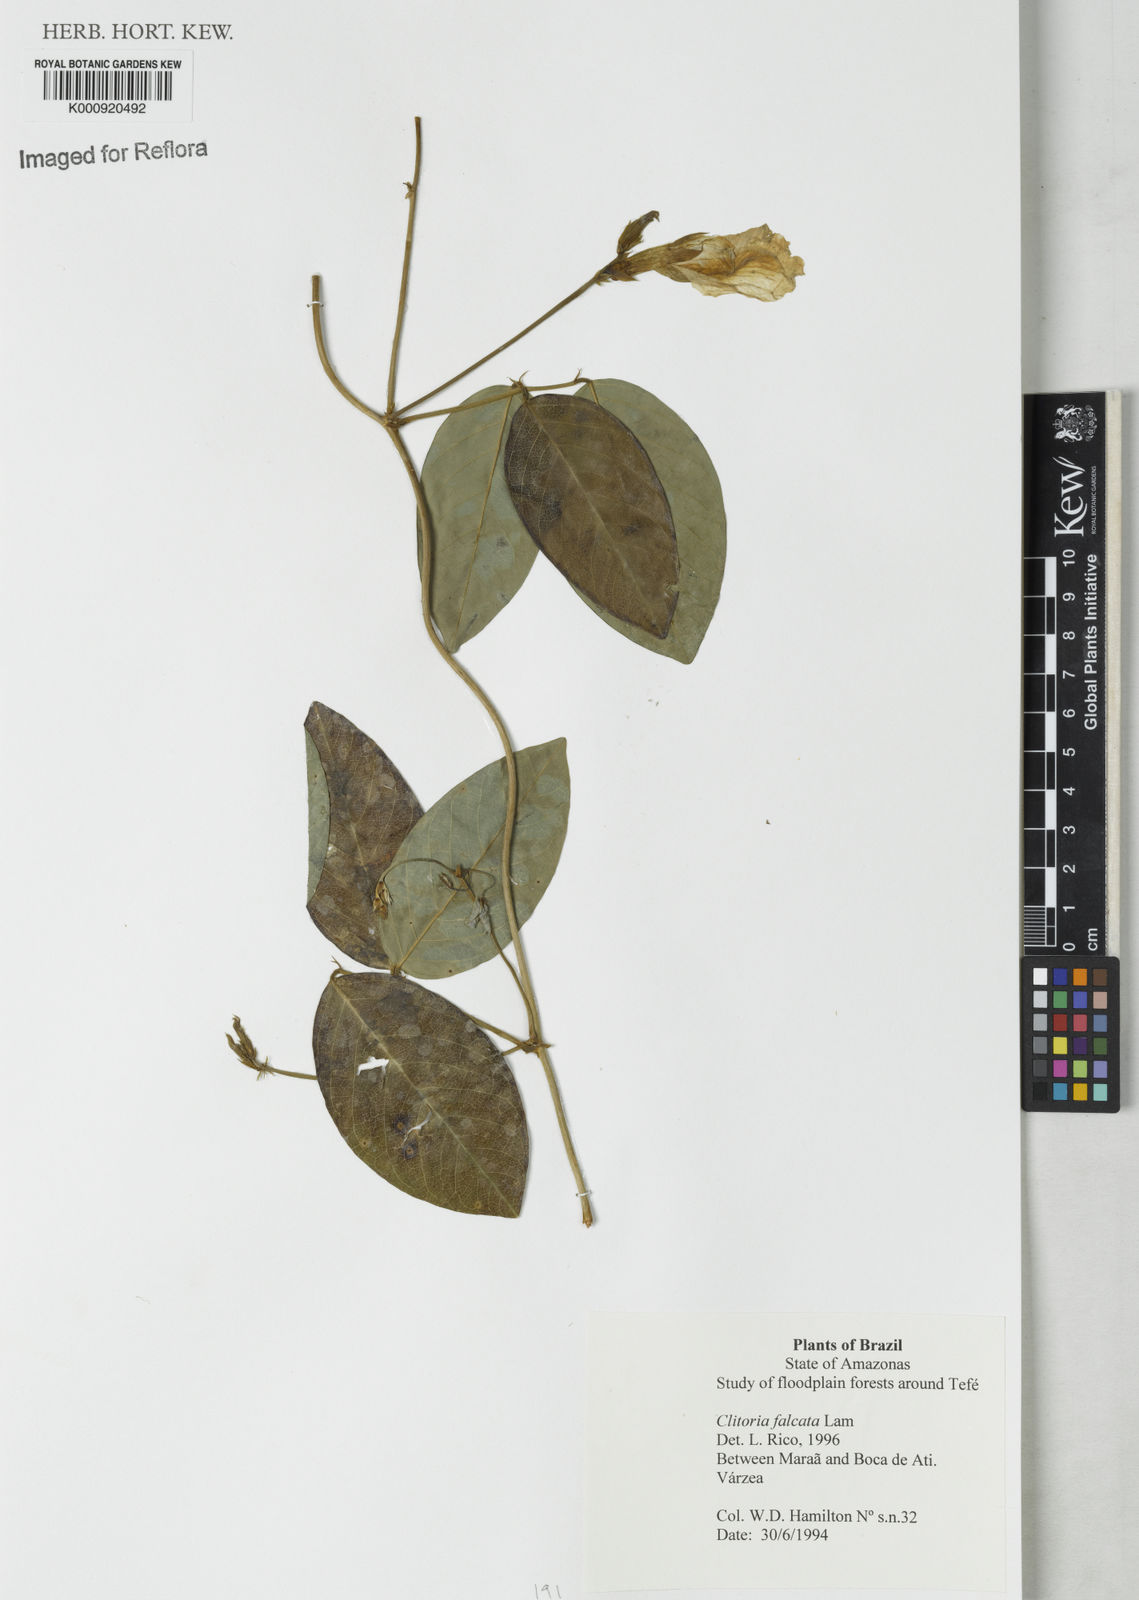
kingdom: Plantae
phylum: Tracheophyta
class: Magnoliopsida
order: Fabales
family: Fabaceae
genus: Clitoria
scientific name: Clitoria falcata
